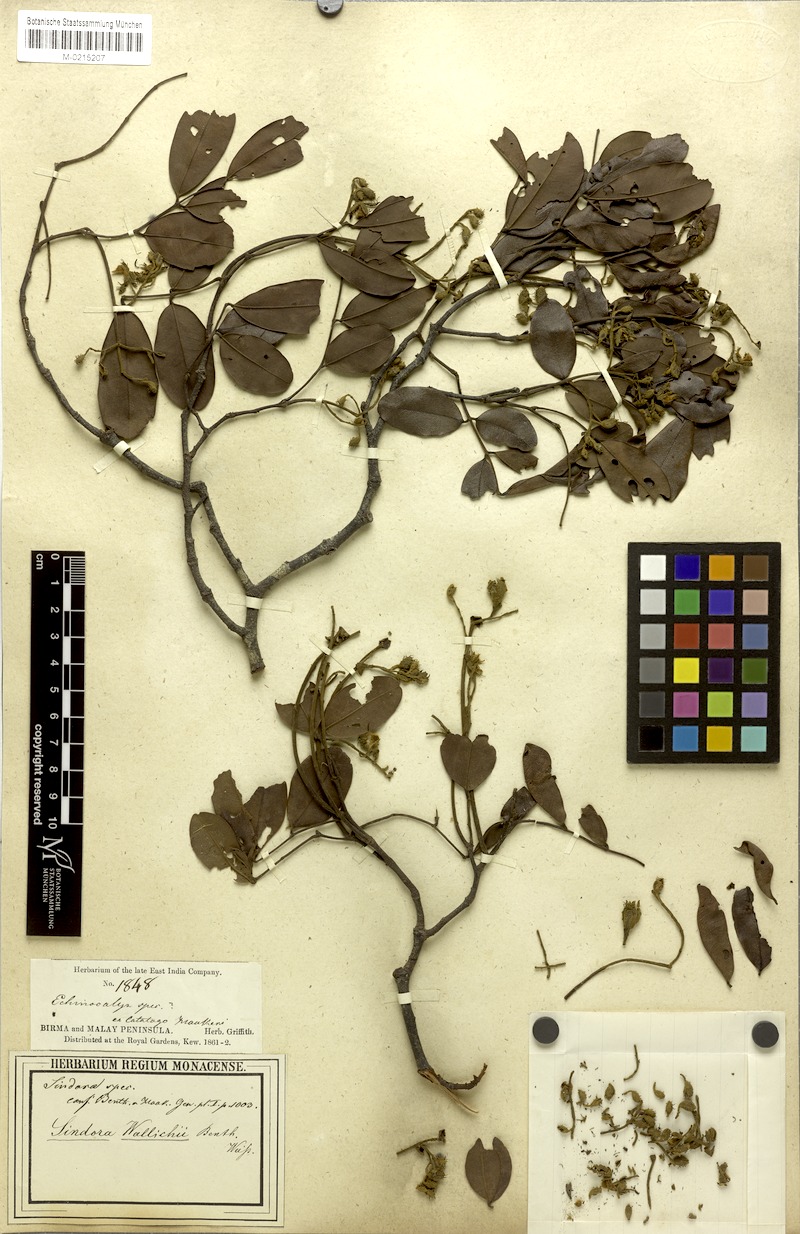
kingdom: Plantae
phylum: Tracheophyta
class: Magnoliopsida
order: Fabales
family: Fabaceae
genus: Sindora
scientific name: Sindora wallichii
